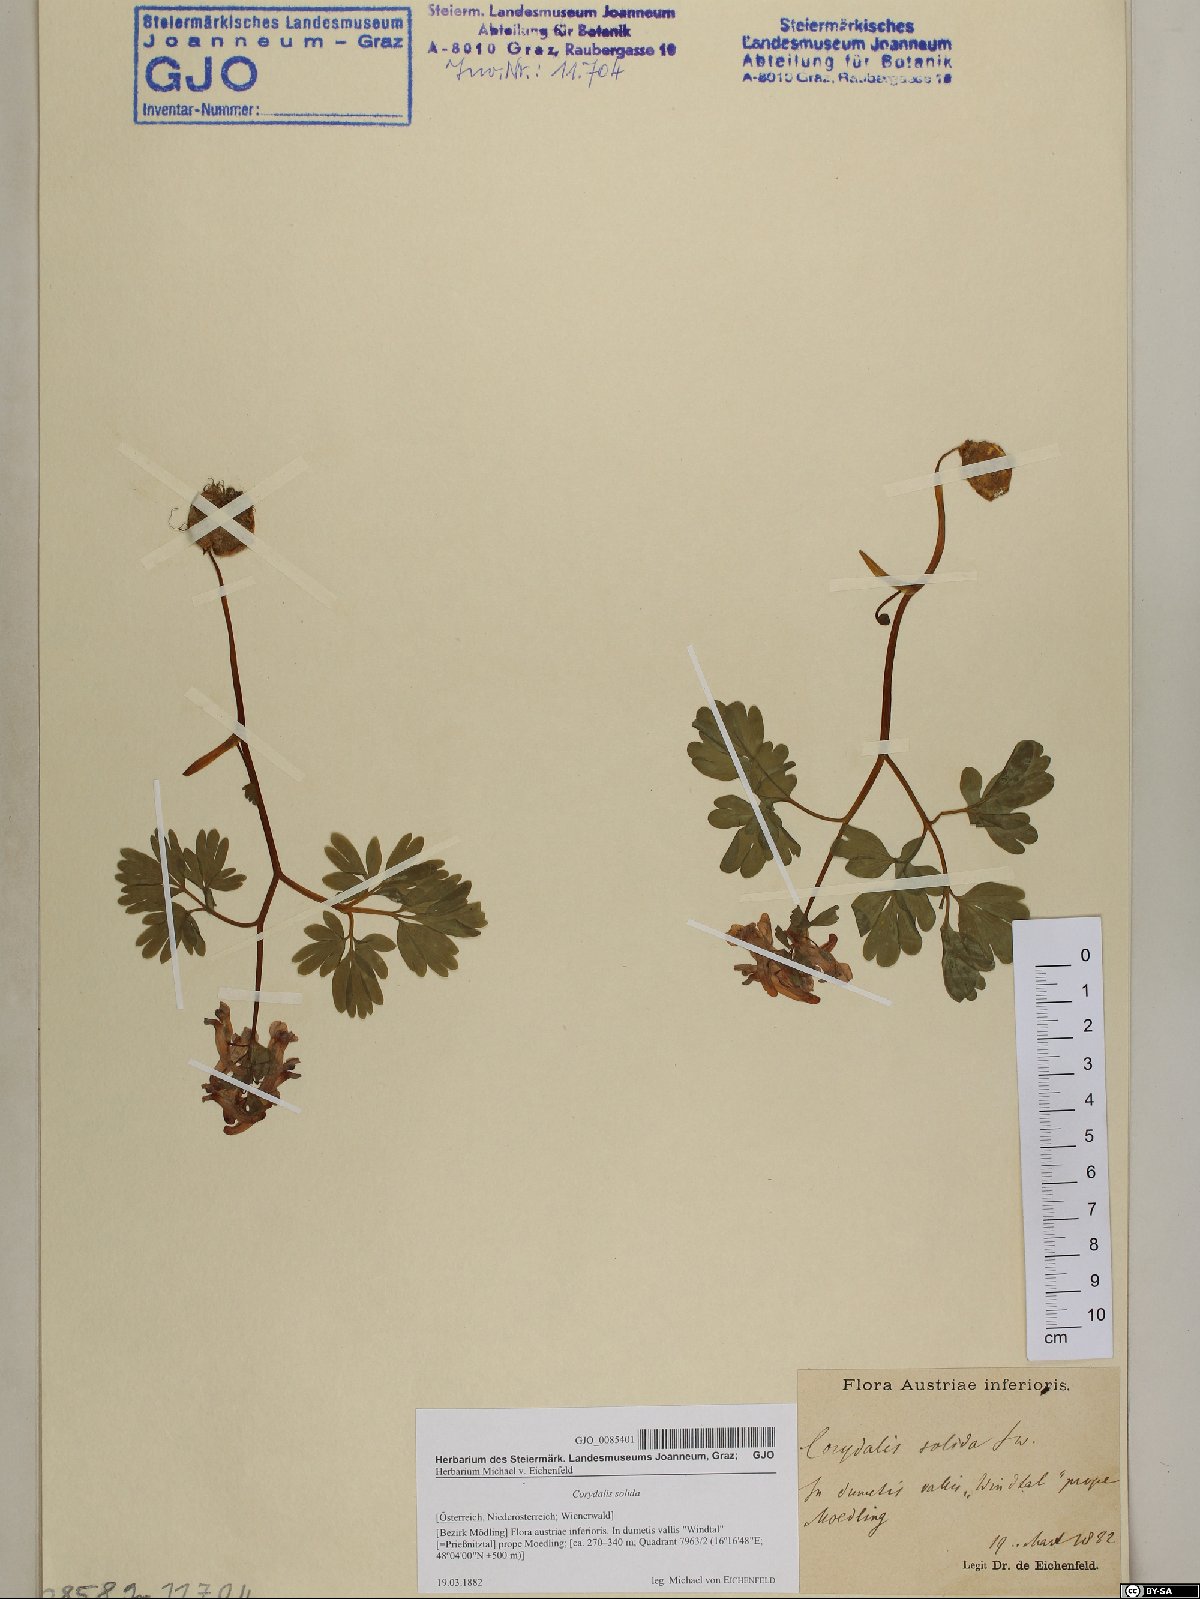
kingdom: Plantae
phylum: Tracheophyta
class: Magnoliopsida
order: Ranunculales
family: Papaveraceae
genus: Corydalis
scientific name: Corydalis solida
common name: Bird-in-a-bush
